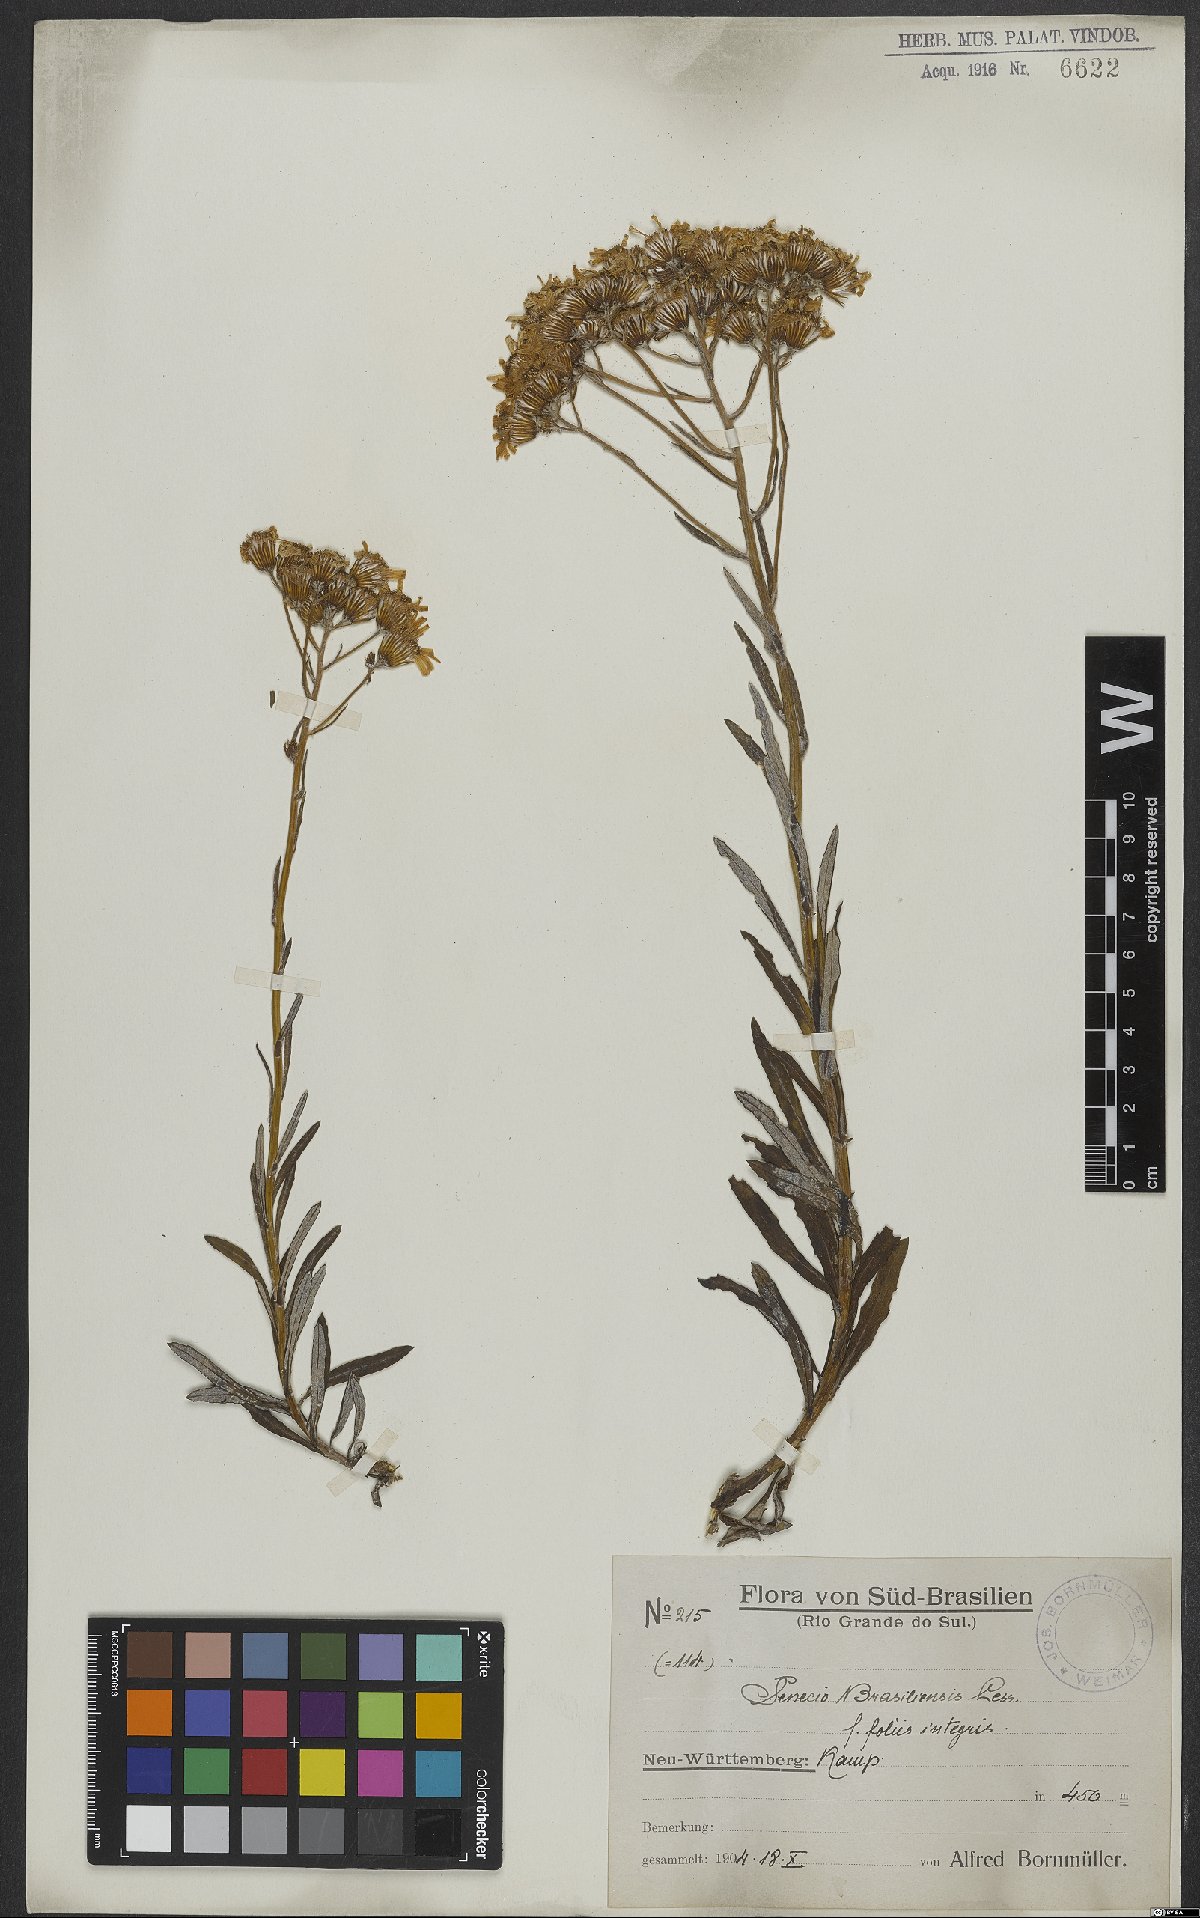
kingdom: Plantae
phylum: Tracheophyta
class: Magnoliopsida
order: Asterales
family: Asteraceae
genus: Senecio
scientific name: Senecio brasiliensis
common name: Hemp-leaf ragwort
